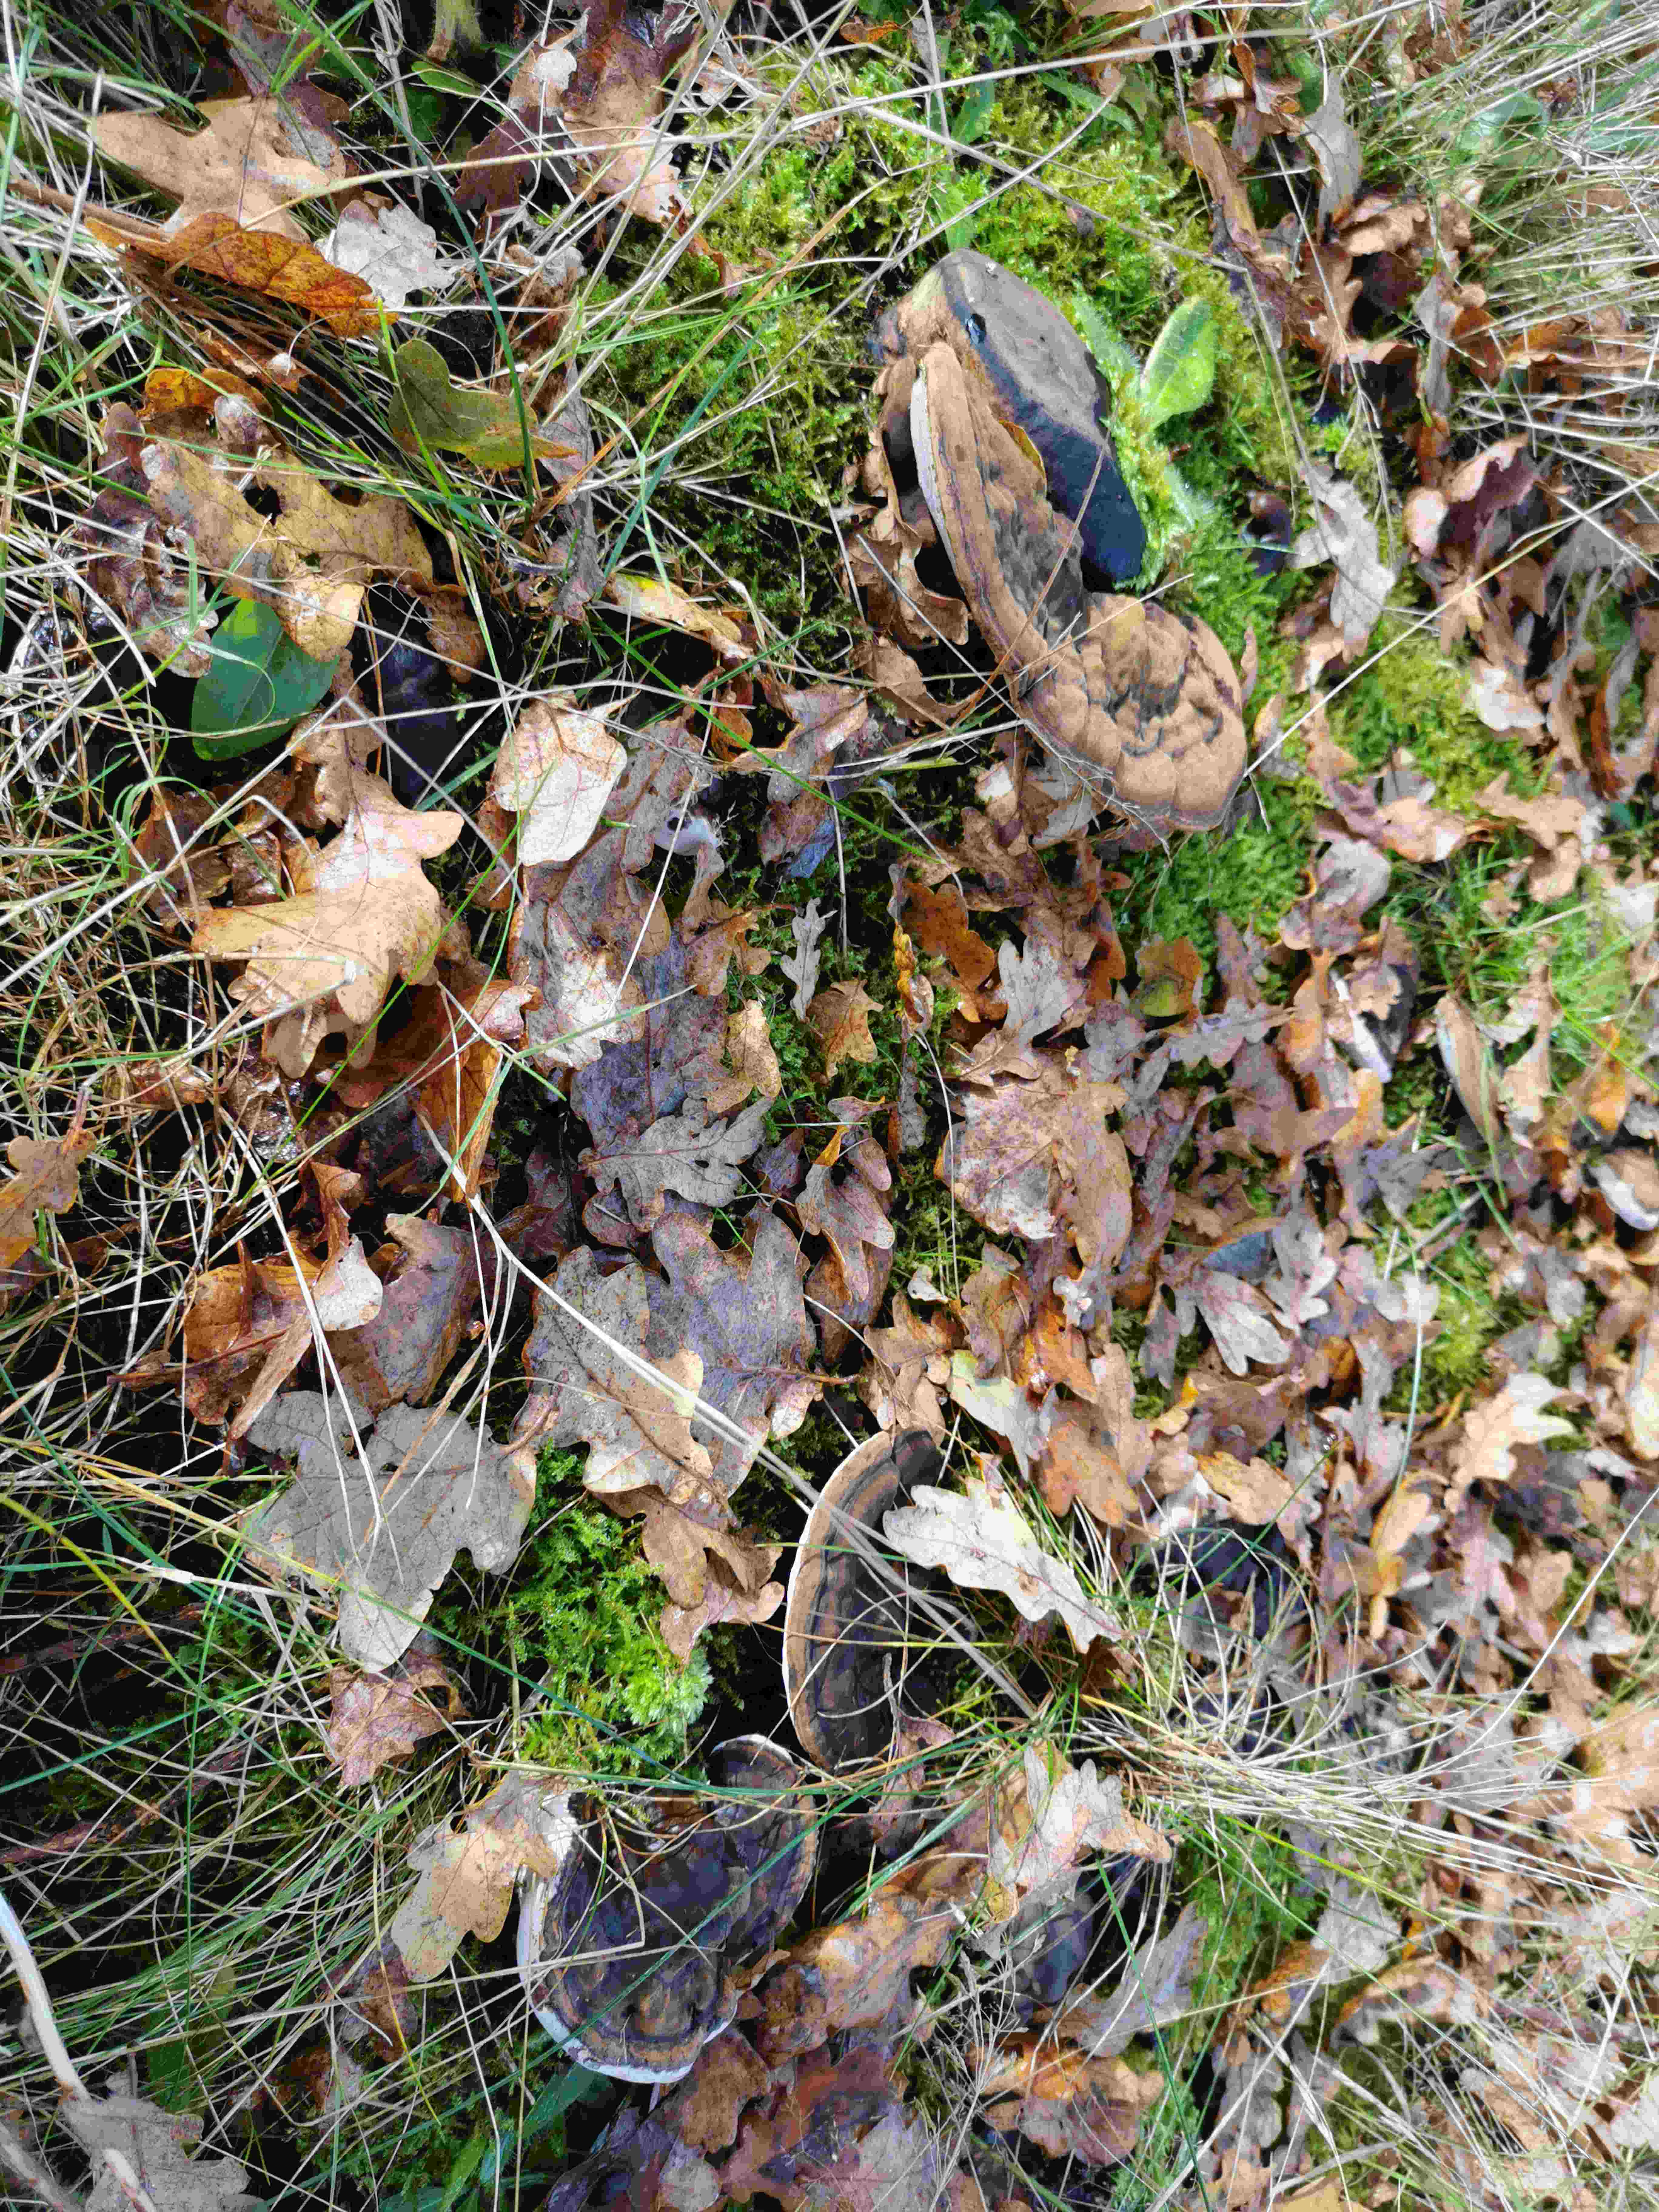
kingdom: Fungi
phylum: Basidiomycota
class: Agaricomycetes
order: Polyporales
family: Polyporaceae
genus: Ganoderma
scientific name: Ganoderma applanatum
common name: flad lakporesvamp
